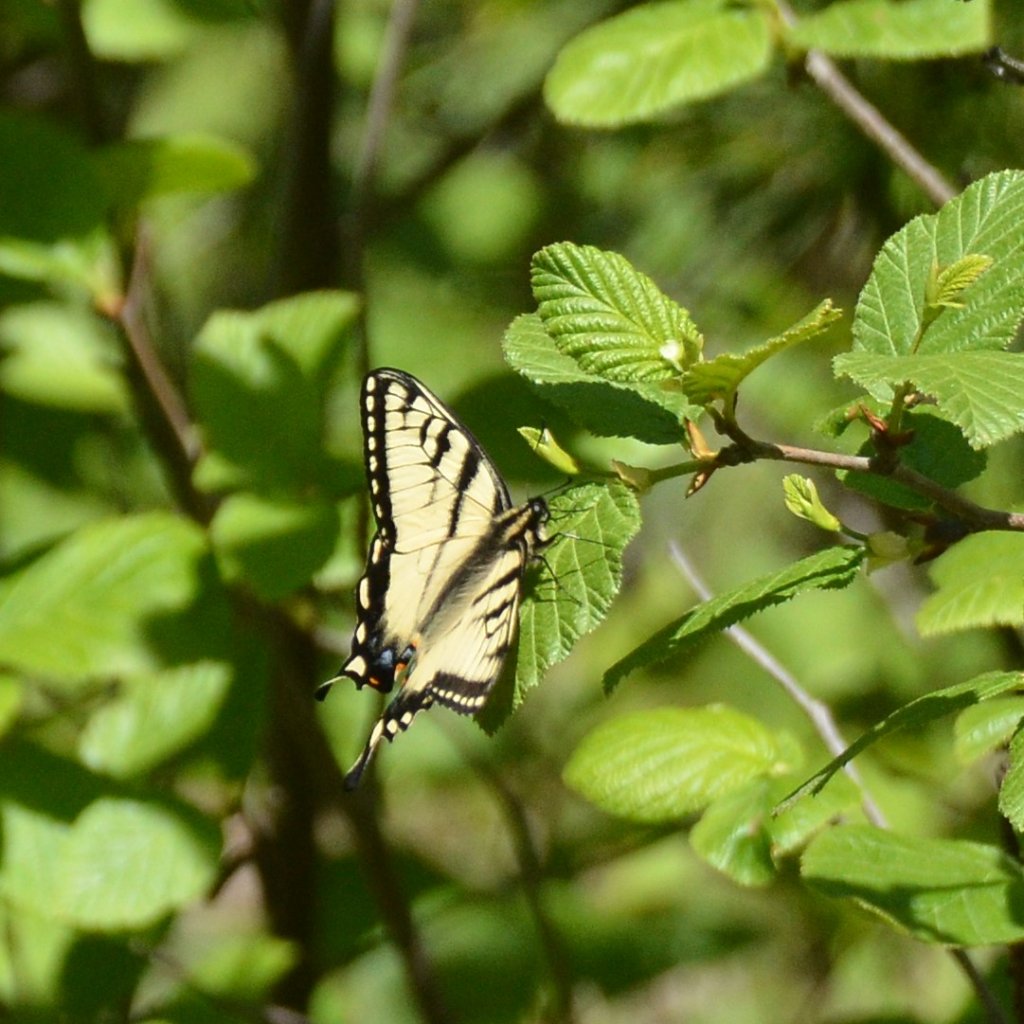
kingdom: Animalia
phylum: Arthropoda
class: Insecta
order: Lepidoptera
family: Papilionidae
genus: Pterourus
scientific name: Pterourus canadensis
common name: Canadian Tiger Swallowtail
